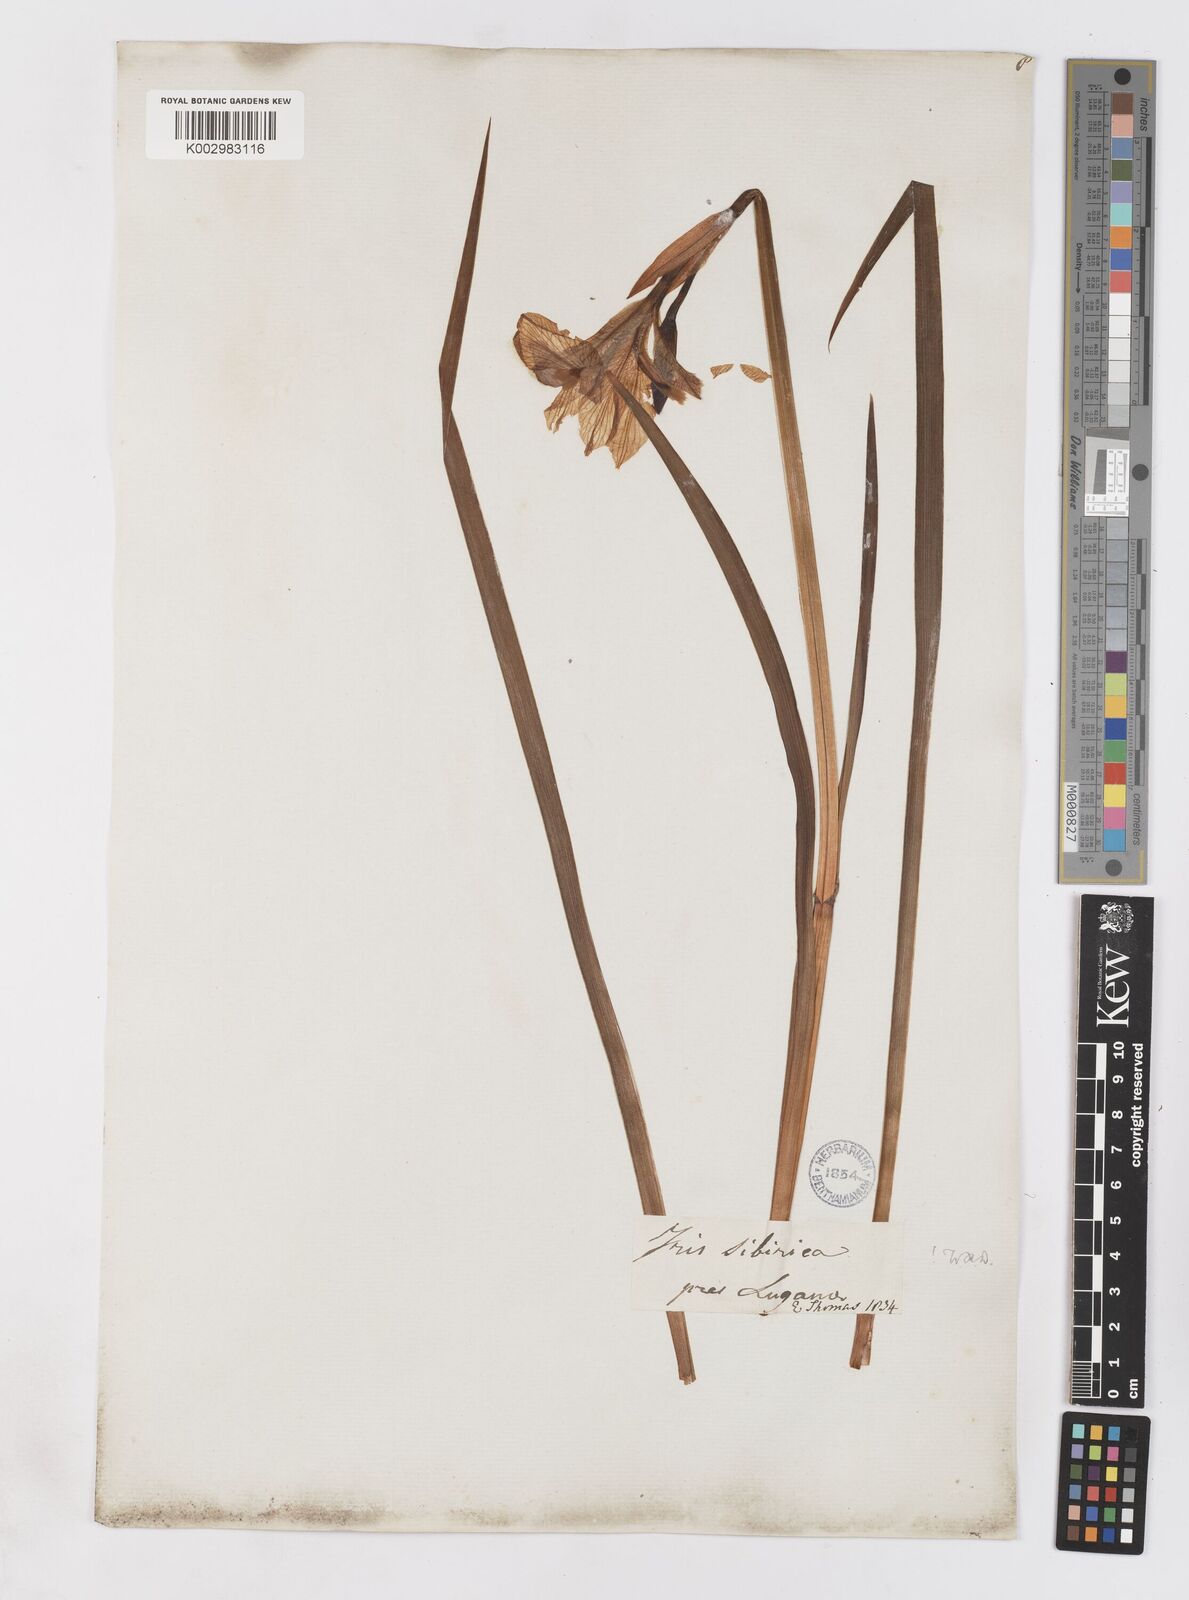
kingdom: Plantae
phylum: Tracheophyta
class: Liliopsida
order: Asparagales
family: Iridaceae
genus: Iris
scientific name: Iris sibirica
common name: Siberian iris
